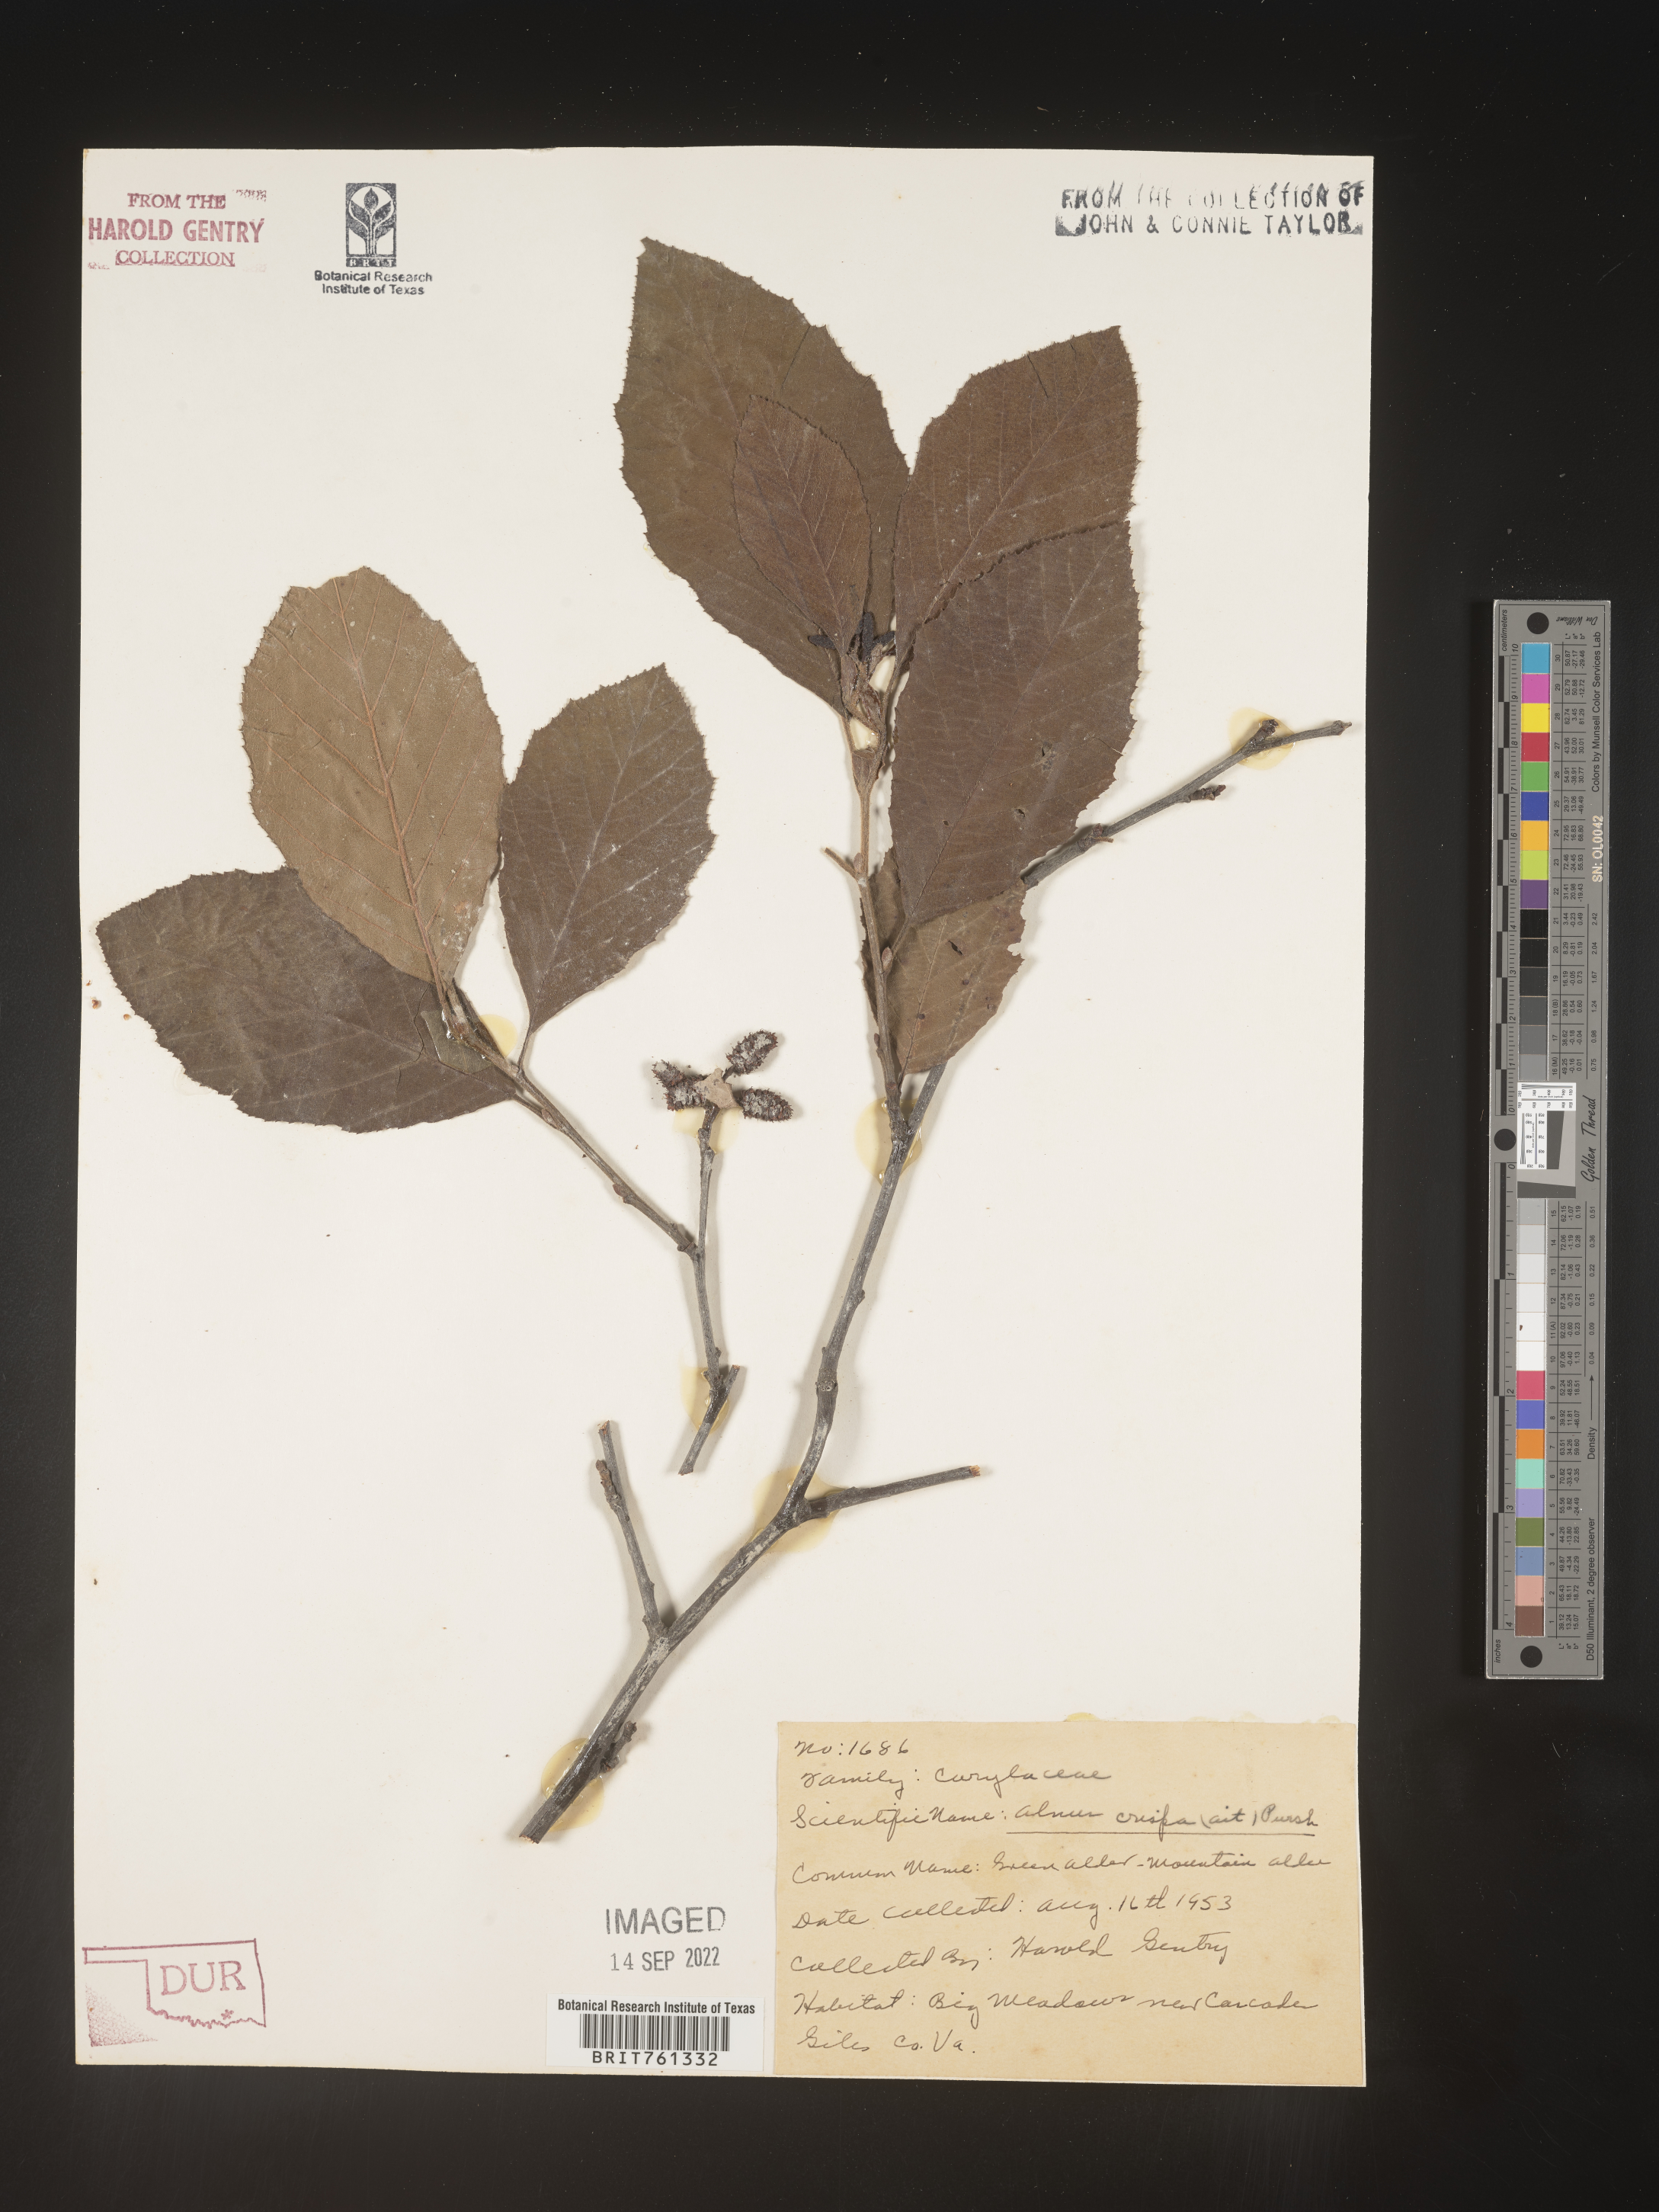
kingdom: Plantae
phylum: Tracheophyta
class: Magnoliopsida
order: Fagales
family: Betulaceae
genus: Alnus
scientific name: Alnus
